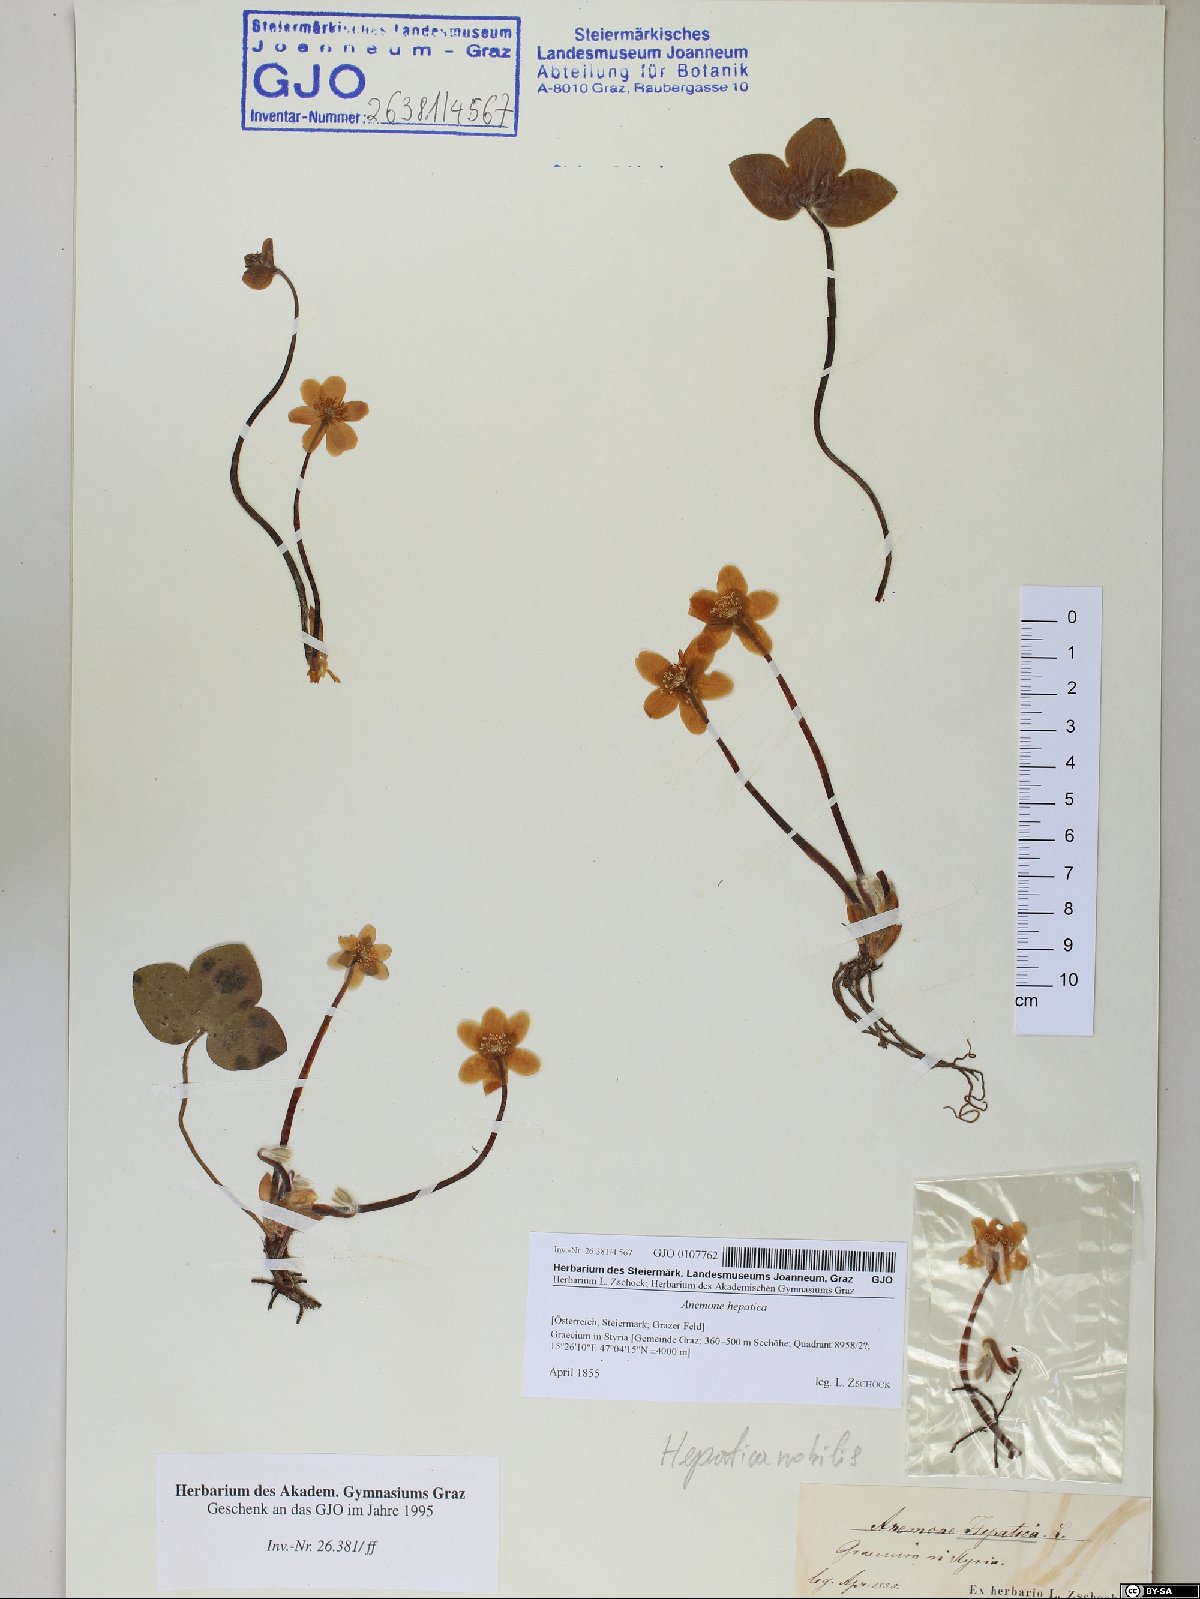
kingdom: Plantae
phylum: Tracheophyta
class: Magnoliopsida
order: Ranunculales
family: Ranunculaceae
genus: Hepatica
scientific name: Hepatica nobilis
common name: Liverleaf
